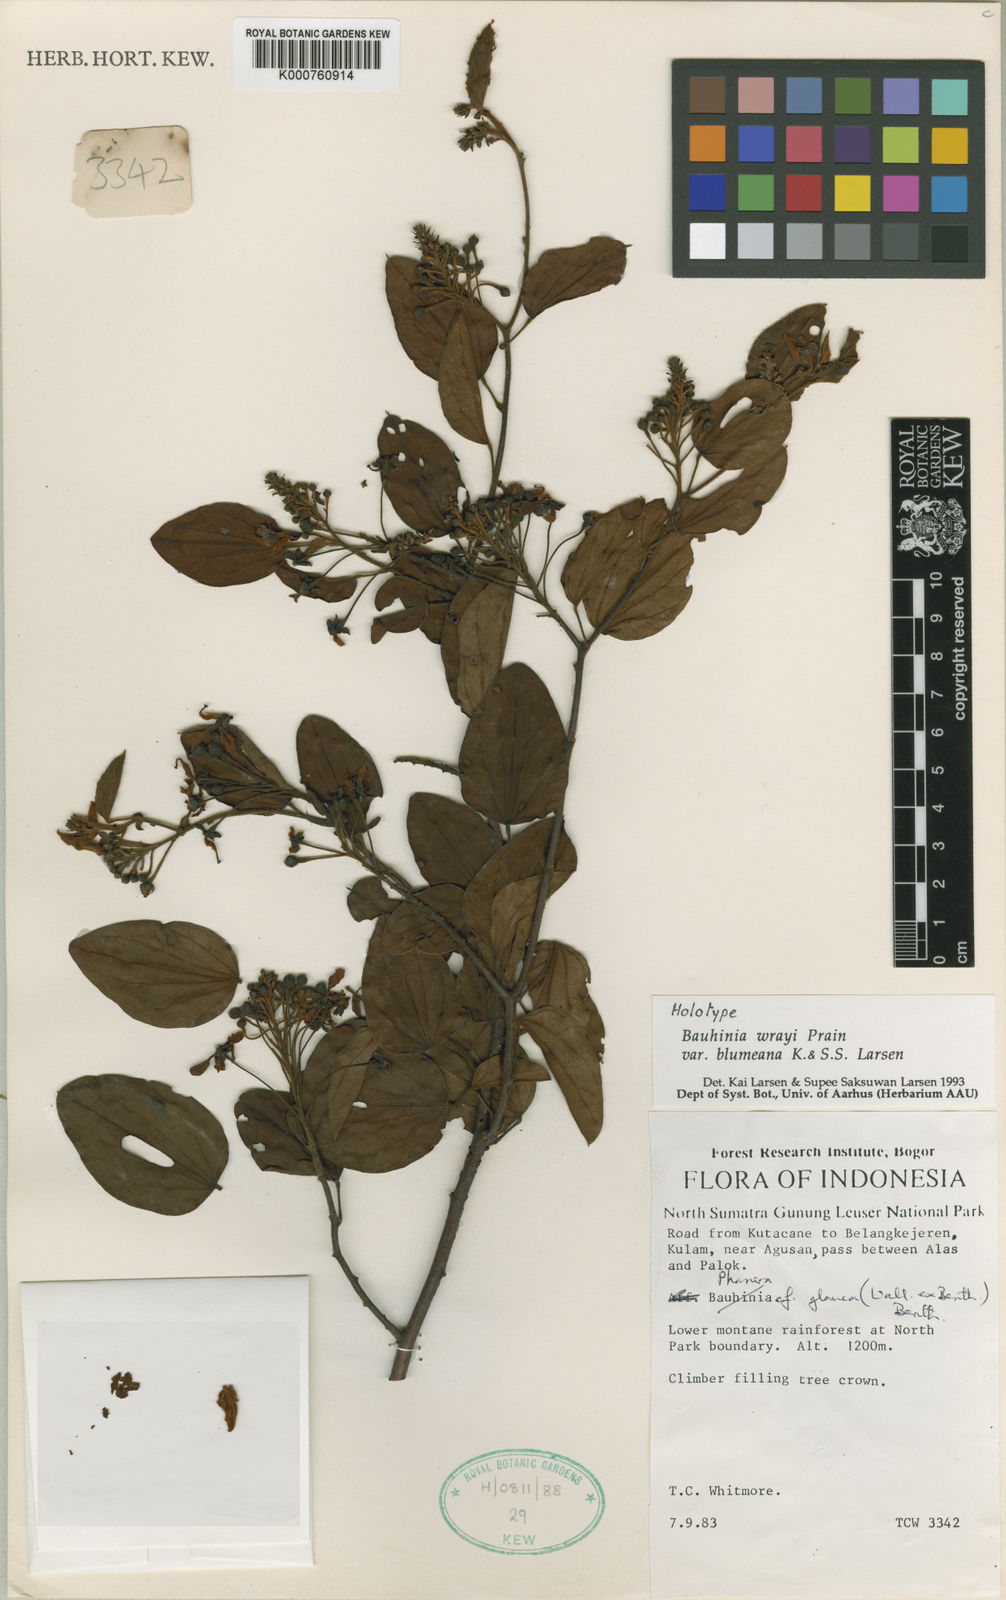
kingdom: Plantae
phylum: Tracheophyta
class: Magnoliopsida
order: Fabales
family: Fabaceae
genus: Phanera
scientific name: Phanera wrayi
